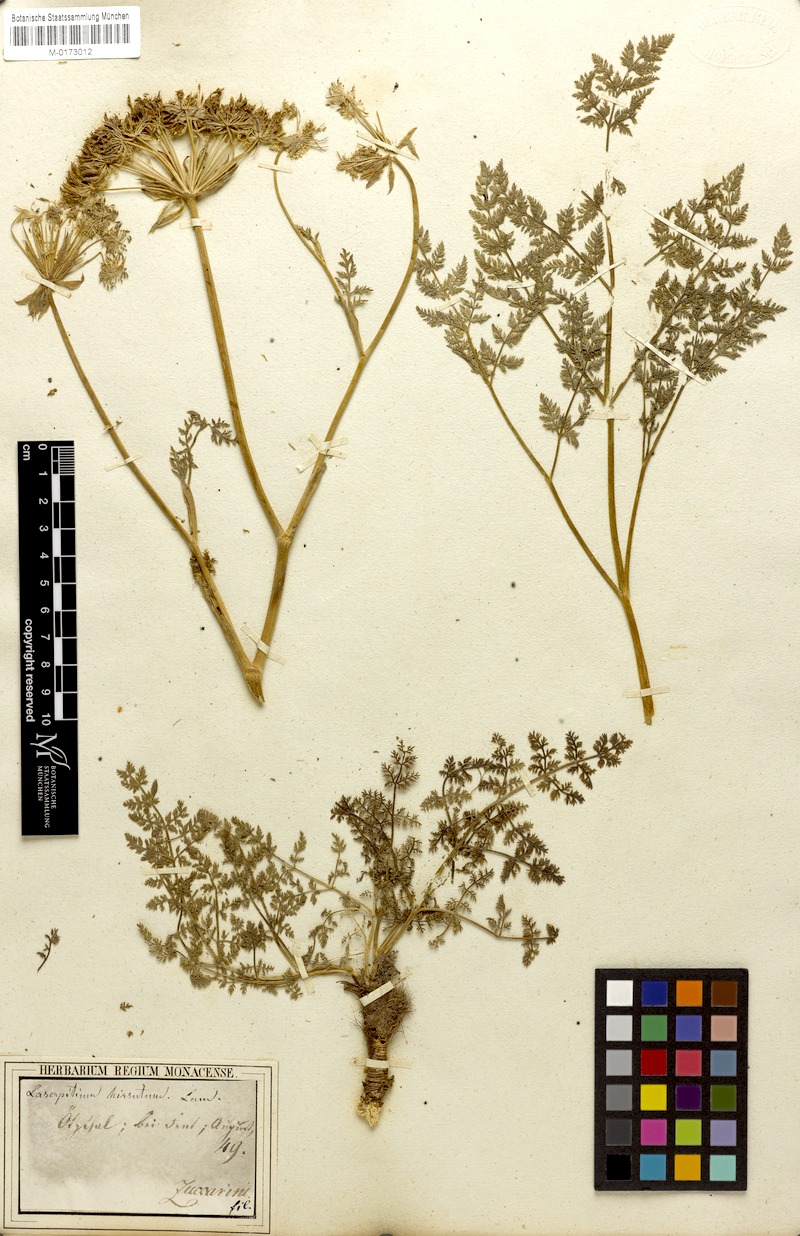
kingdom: Plantae
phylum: Tracheophyta
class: Magnoliopsida
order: Apiales
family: Apiaceae
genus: Laserpitium
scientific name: Laserpitium halleri
